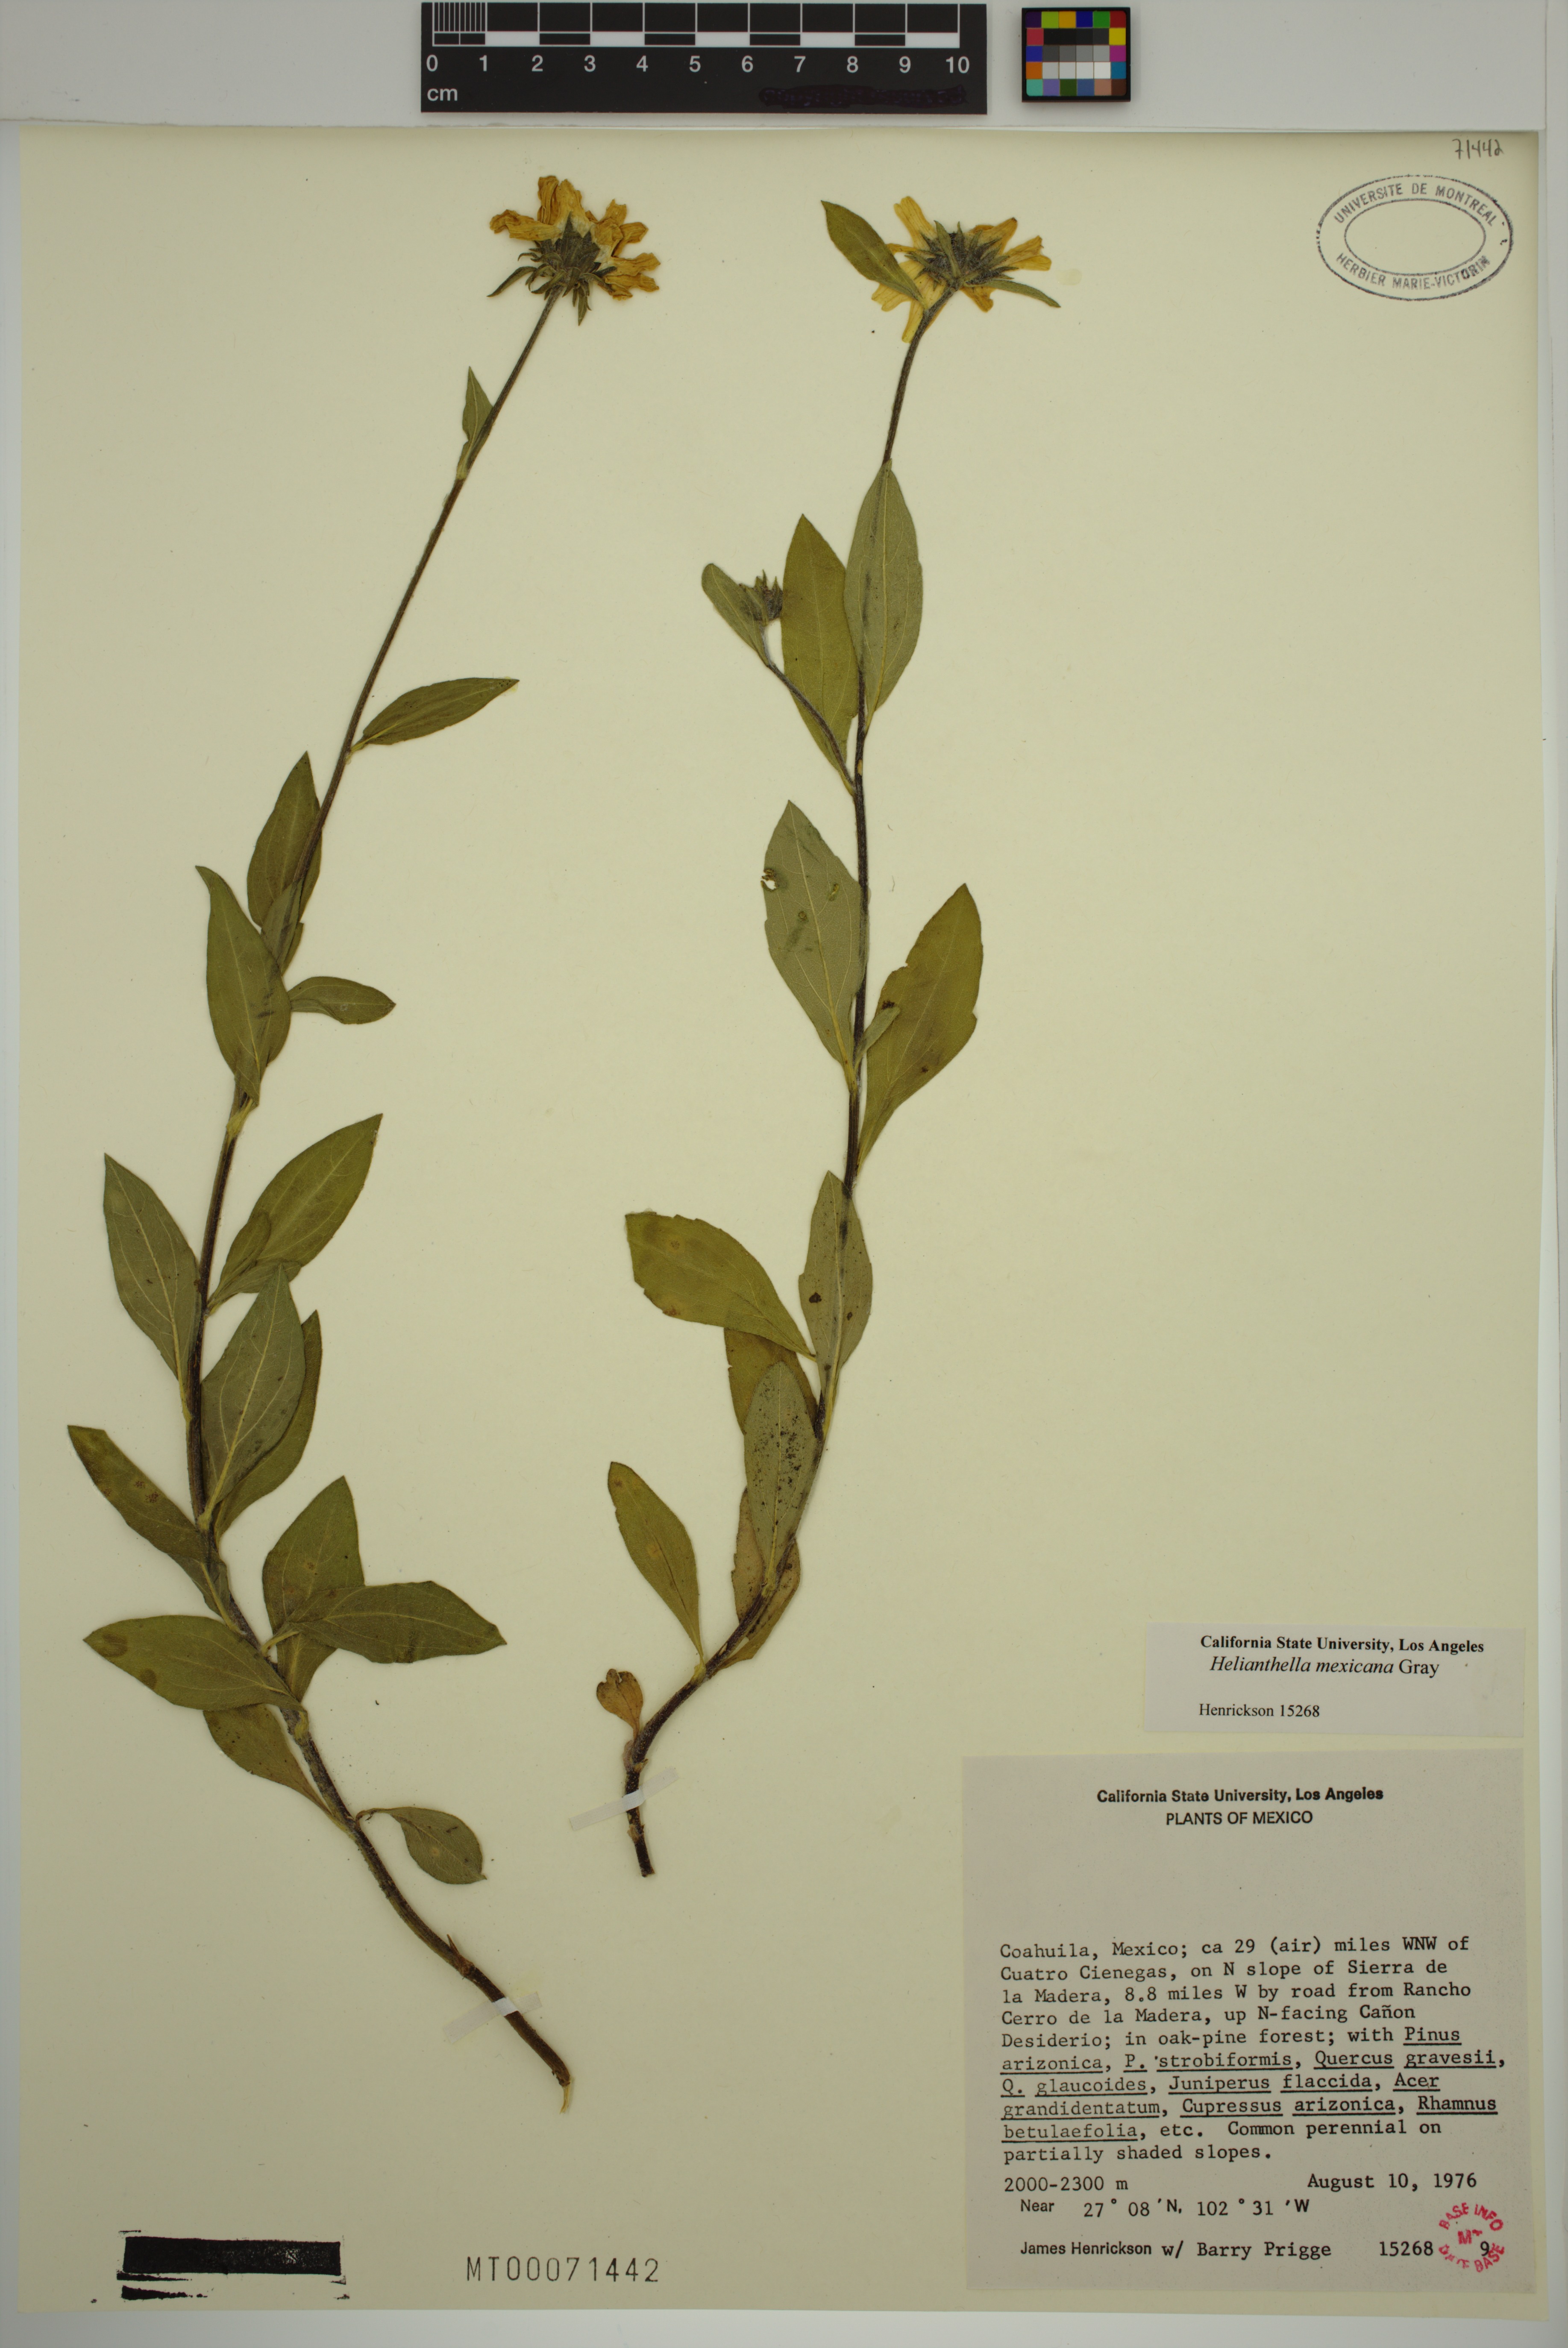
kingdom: Plantae
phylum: Tracheophyta
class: Magnoliopsida
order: Asterales
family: Asteraceae
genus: Helianthella
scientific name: Helianthella mexicana
